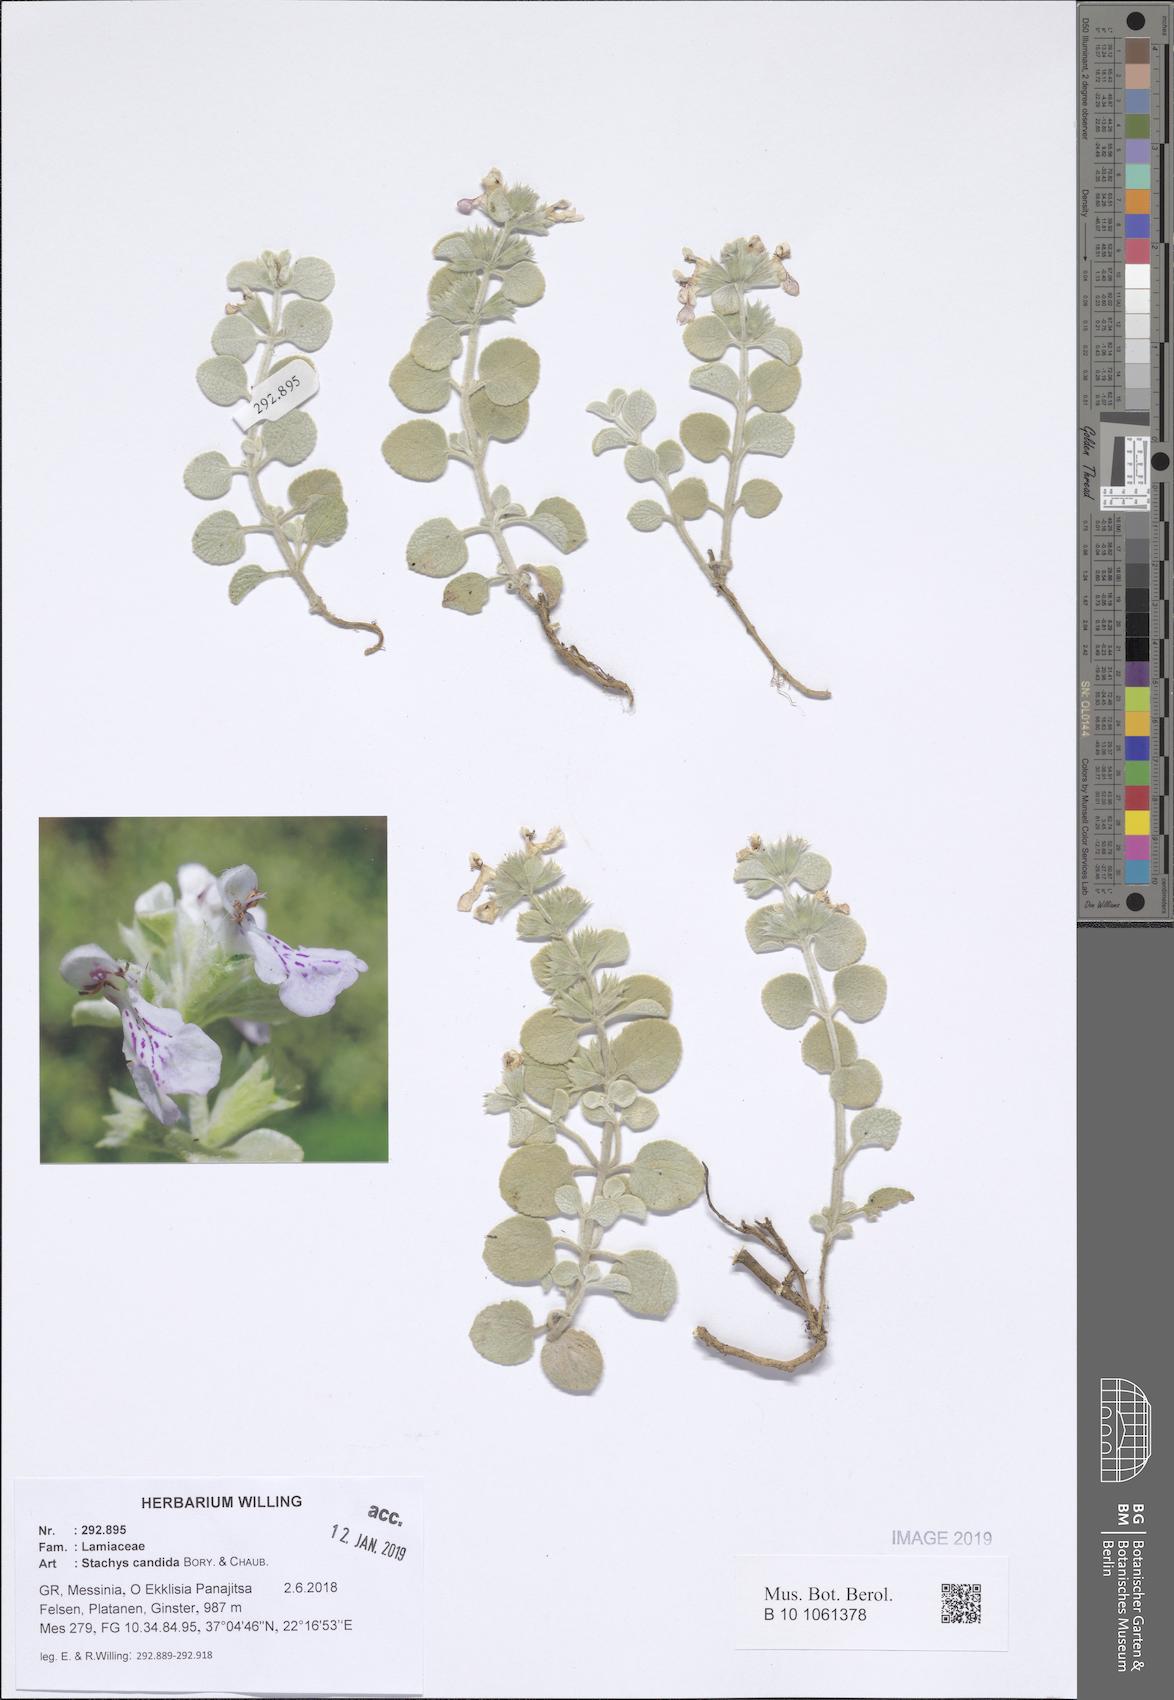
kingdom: Plantae
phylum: Tracheophyta
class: Magnoliopsida
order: Lamiales
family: Lamiaceae
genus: Stachys
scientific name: Stachys candida
